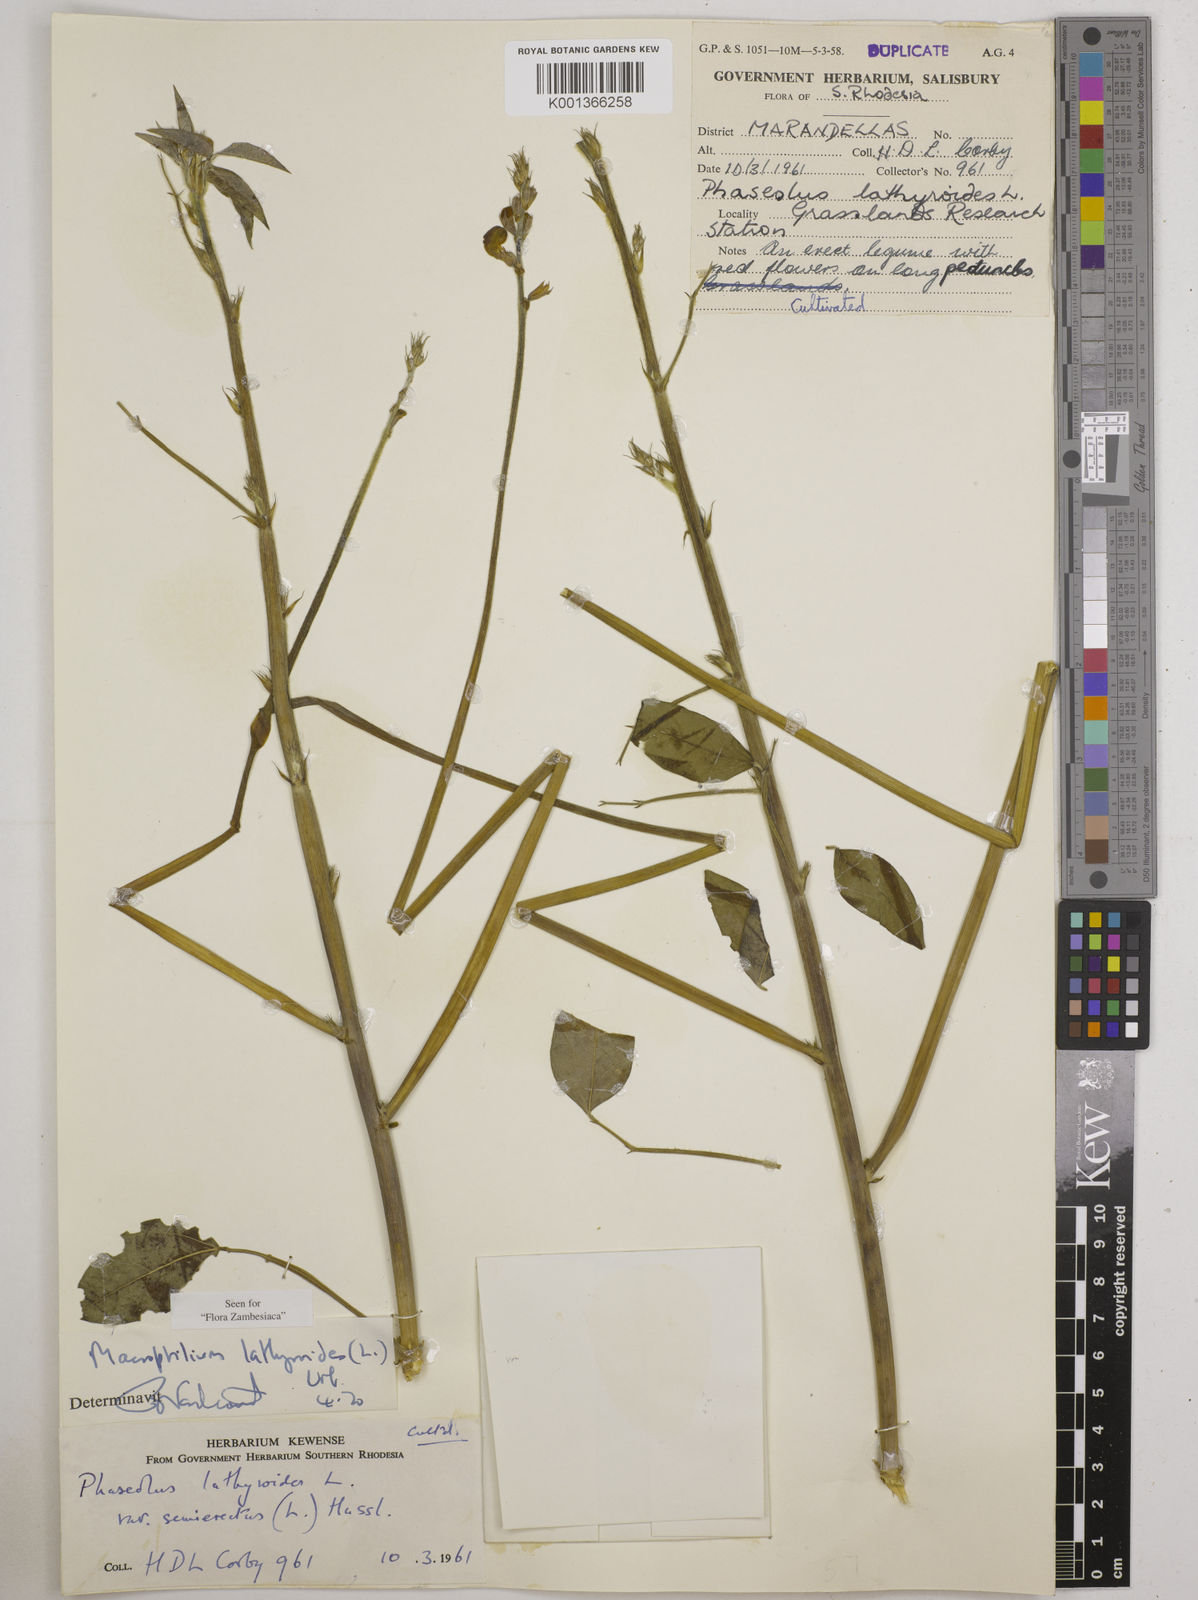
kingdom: Plantae
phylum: Tracheophyta
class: Magnoliopsida
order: Fabales
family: Fabaceae
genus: Macroptilium
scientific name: Macroptilium lathyroides
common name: Wild bushbean
